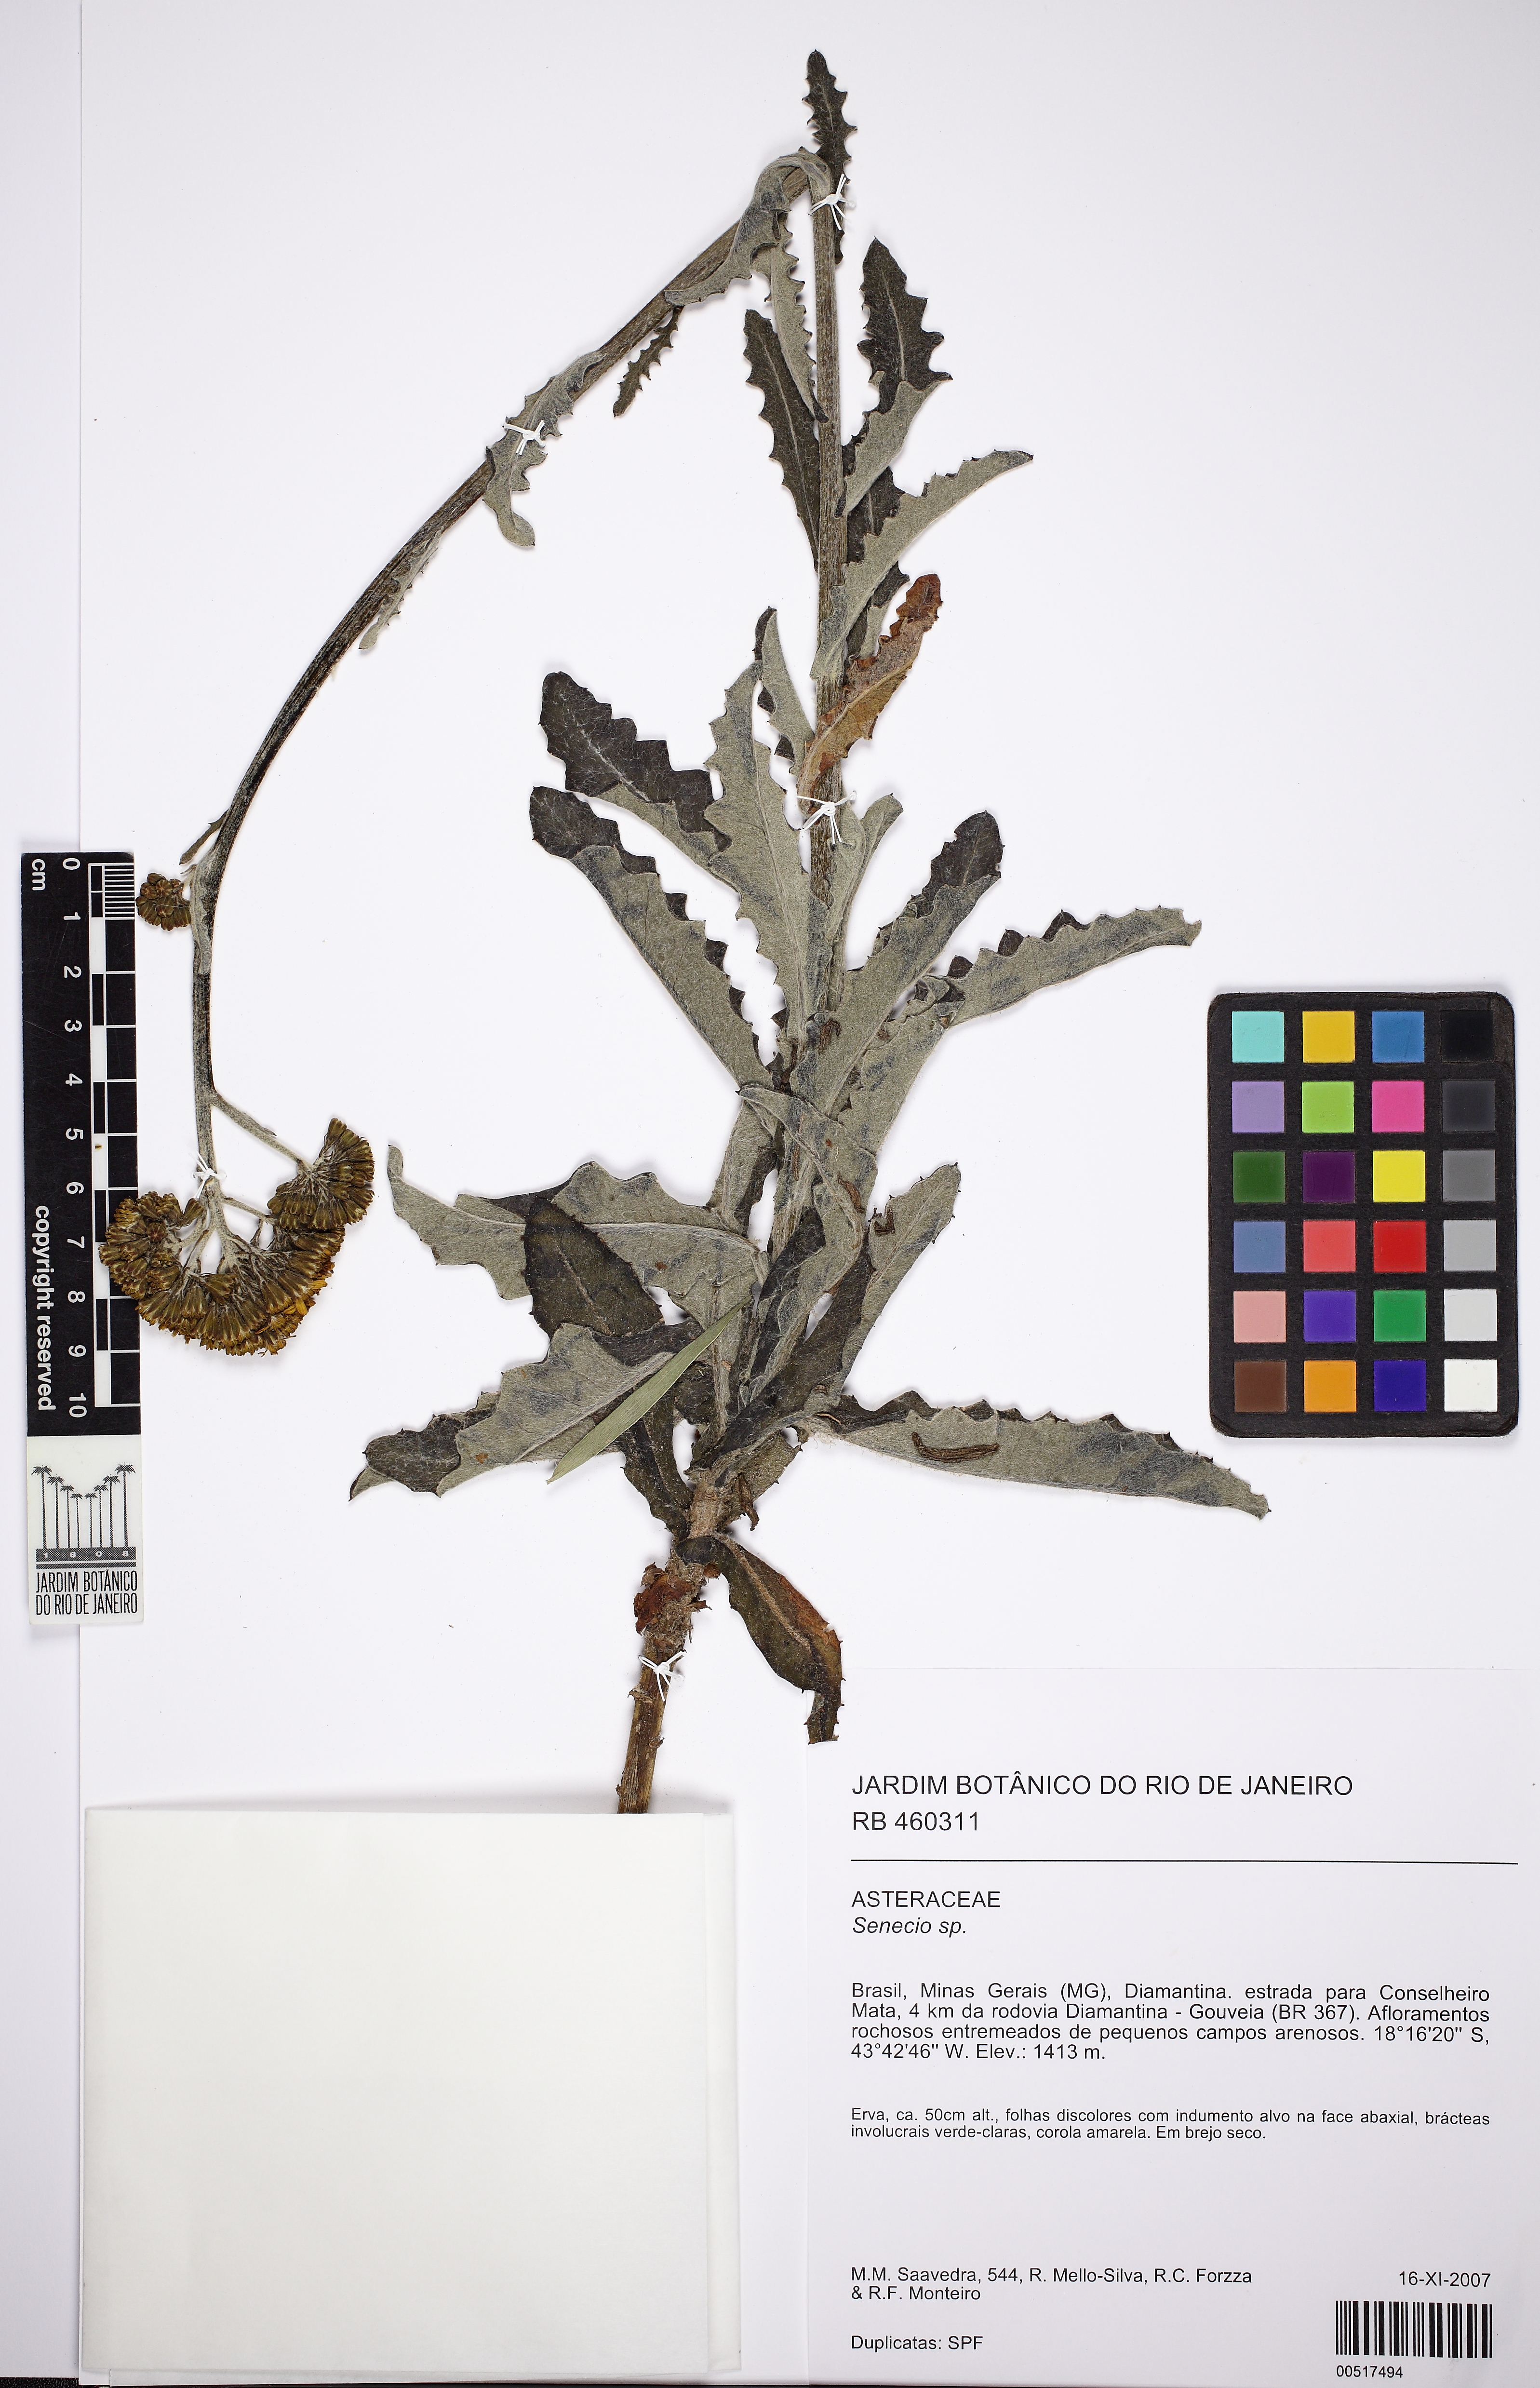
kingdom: Plantae
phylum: Tracheophyta
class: Magnoliopsida
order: Asterales
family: Asteraceae
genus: Senecio
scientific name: Senecio adamantinus
